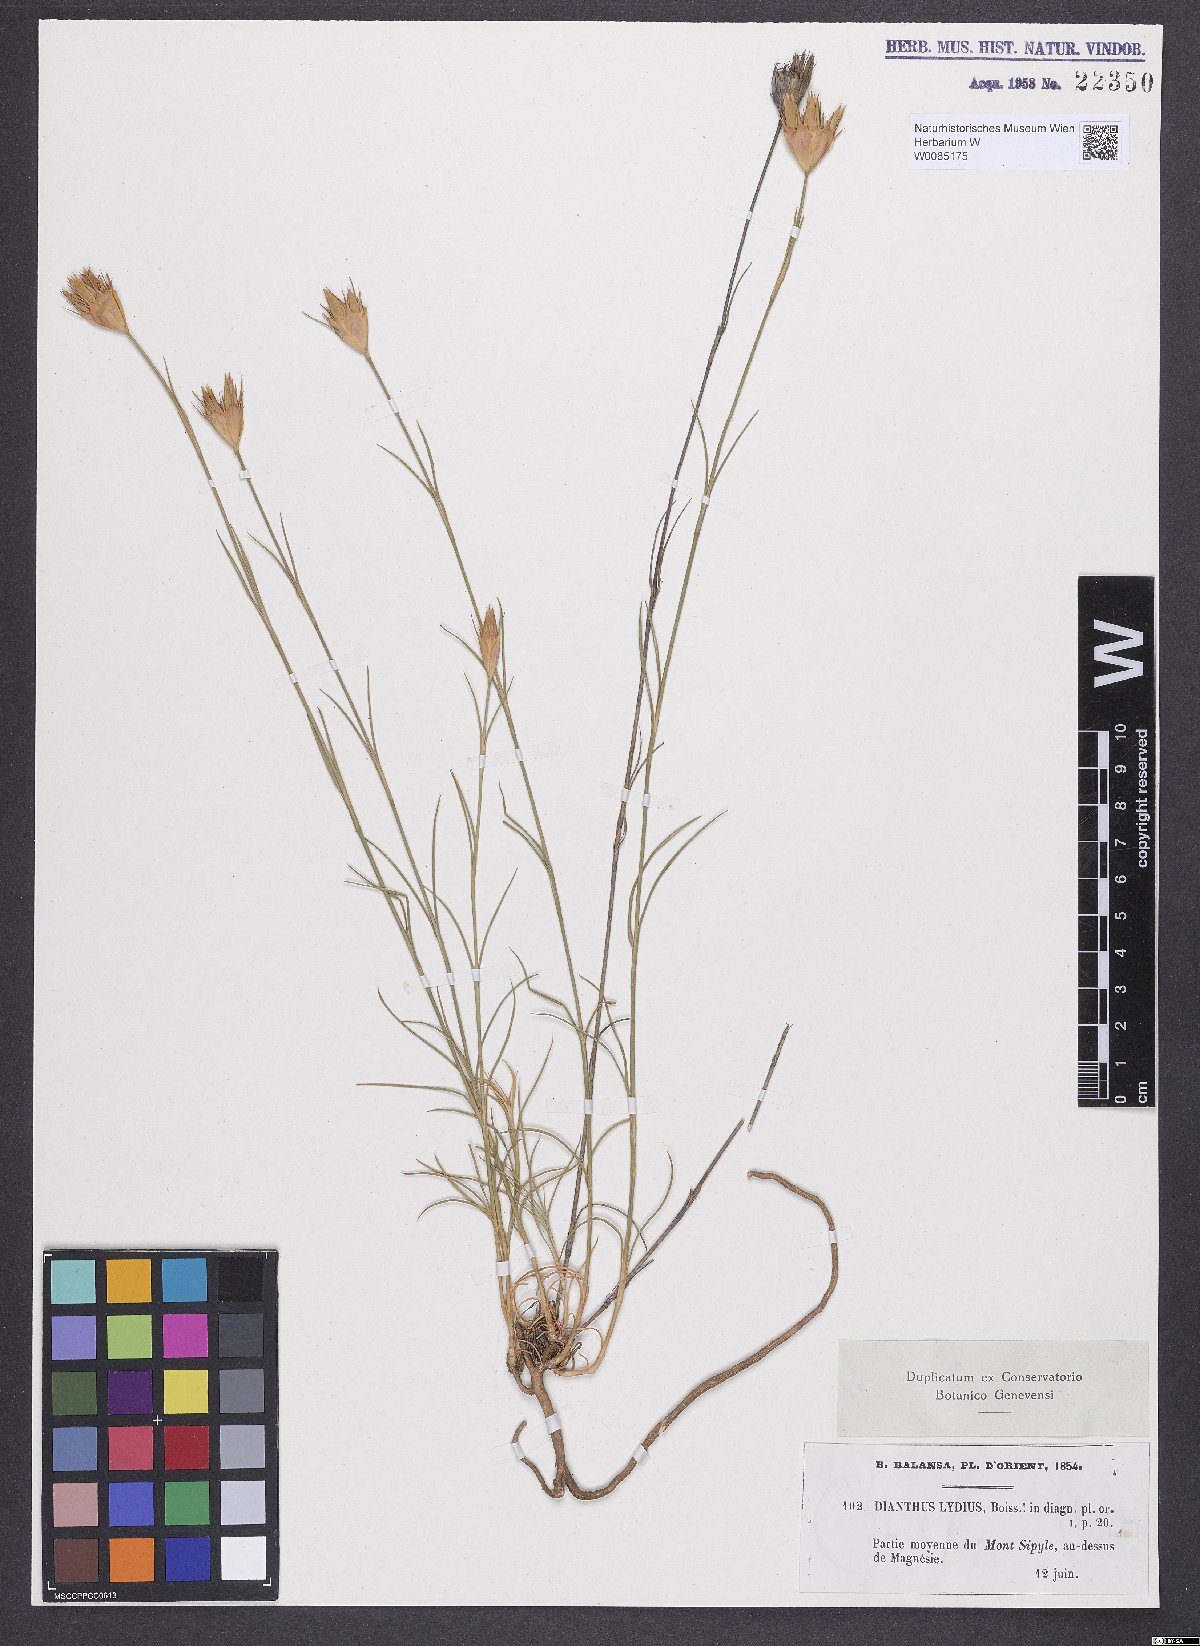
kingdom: Plantae
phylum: Tracheophyta
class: Magnoliopsida
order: Caryophyllales
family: Caryophyllaceae
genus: Dianthus
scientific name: Dianthus lydus
